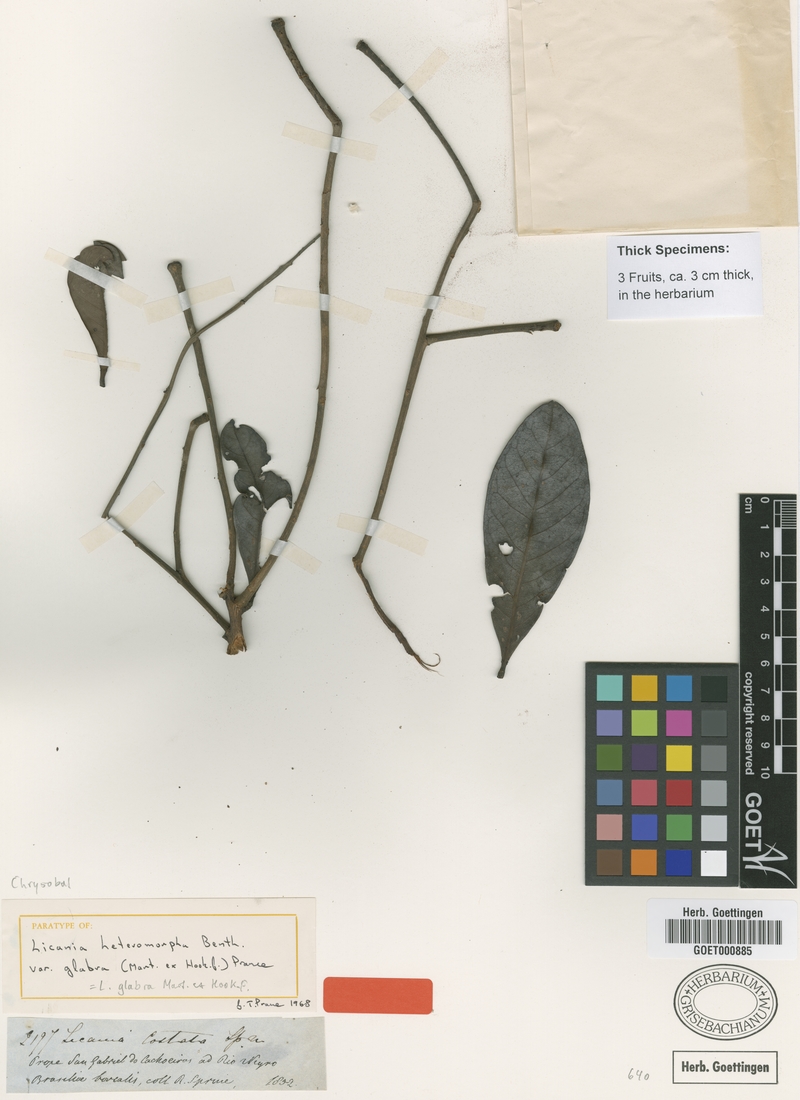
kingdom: Plantae
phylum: Tracheophyta
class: Magnoliopsida
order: Malpighiales
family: Chrysobalanaceae
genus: Hymenopus
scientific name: Hymenopus heteromorphus
